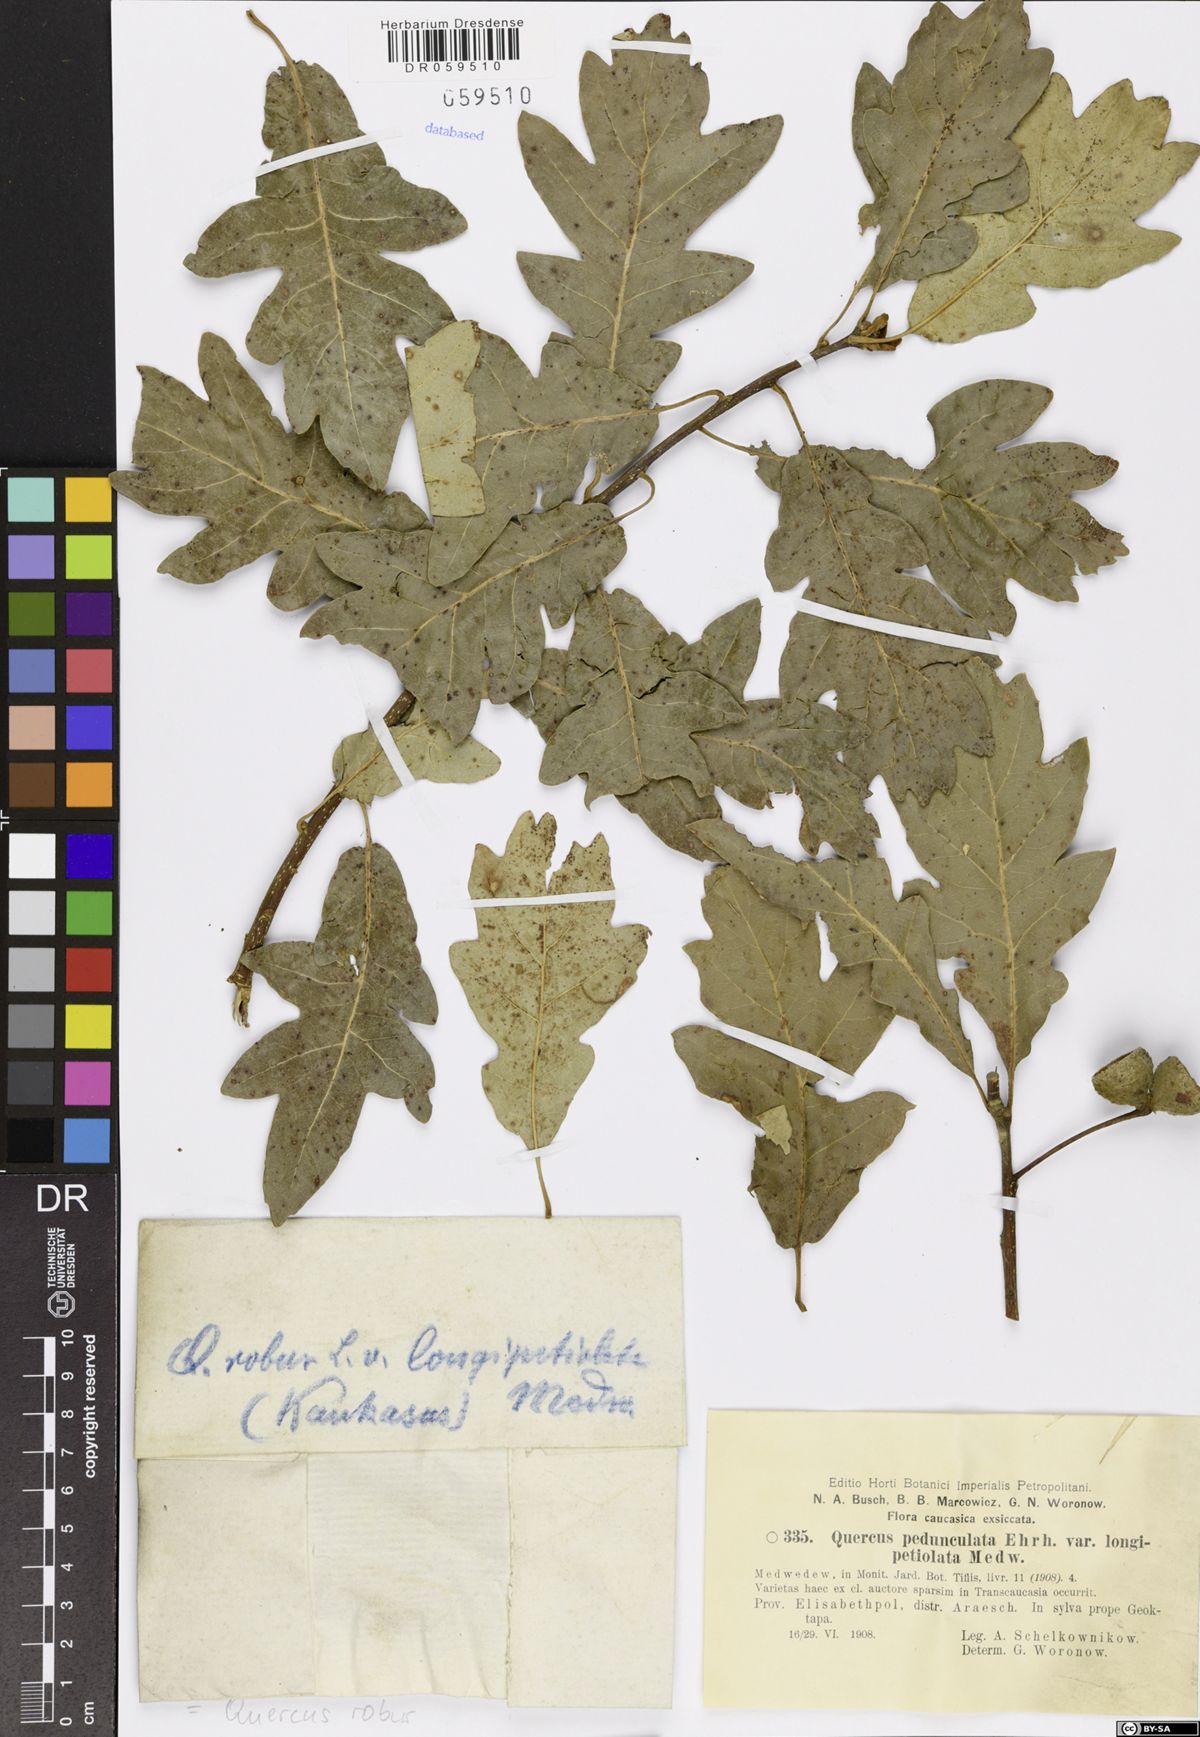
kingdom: Plantae
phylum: Tracheophyta
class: Magnoliopsida
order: Fagales
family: Fagaceae
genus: Quercus
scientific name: Quercus robur
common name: Pedunculate oak
